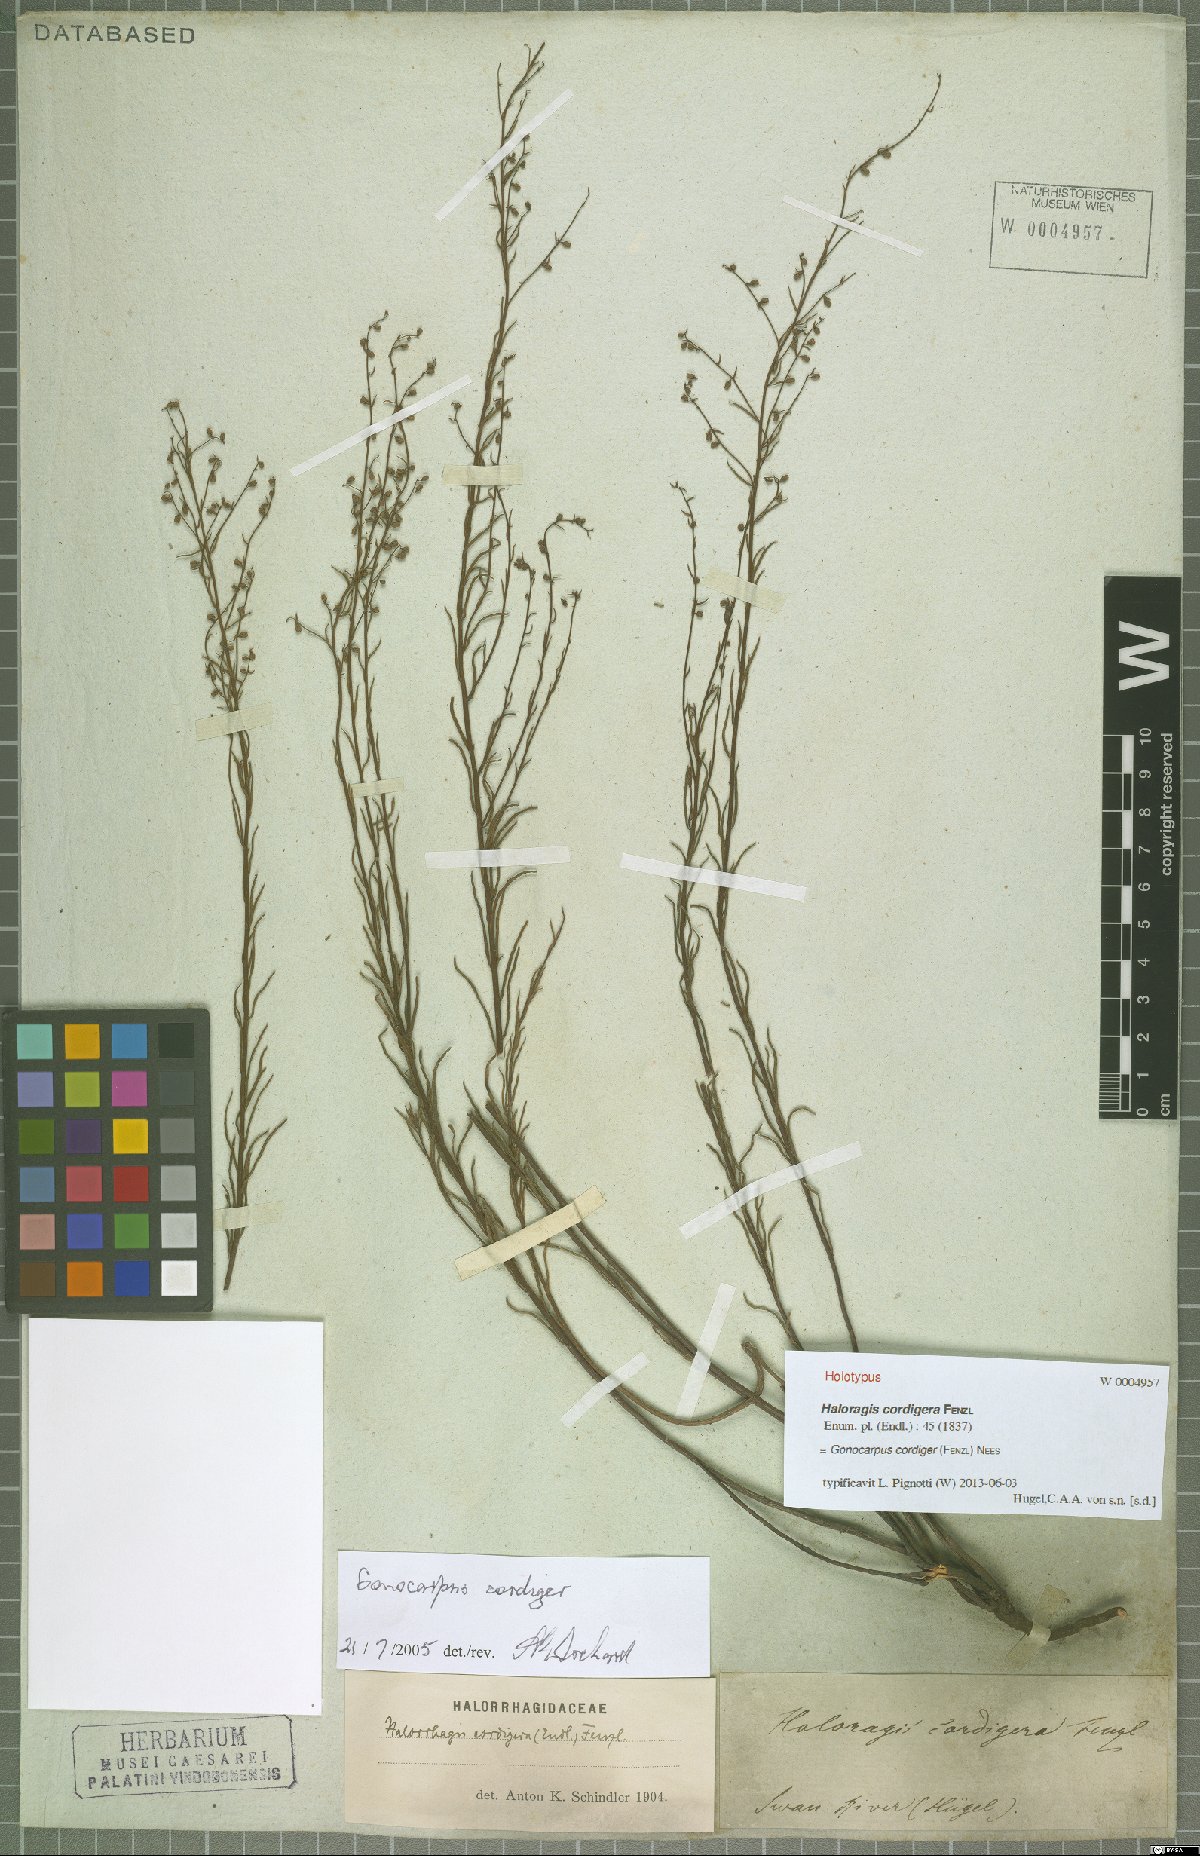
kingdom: Plantae
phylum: Tracheophyta
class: Magnoliopsida
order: Saxifragales
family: Haloragaceae
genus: Gonocarpus
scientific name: Gonocarpus cordiger
